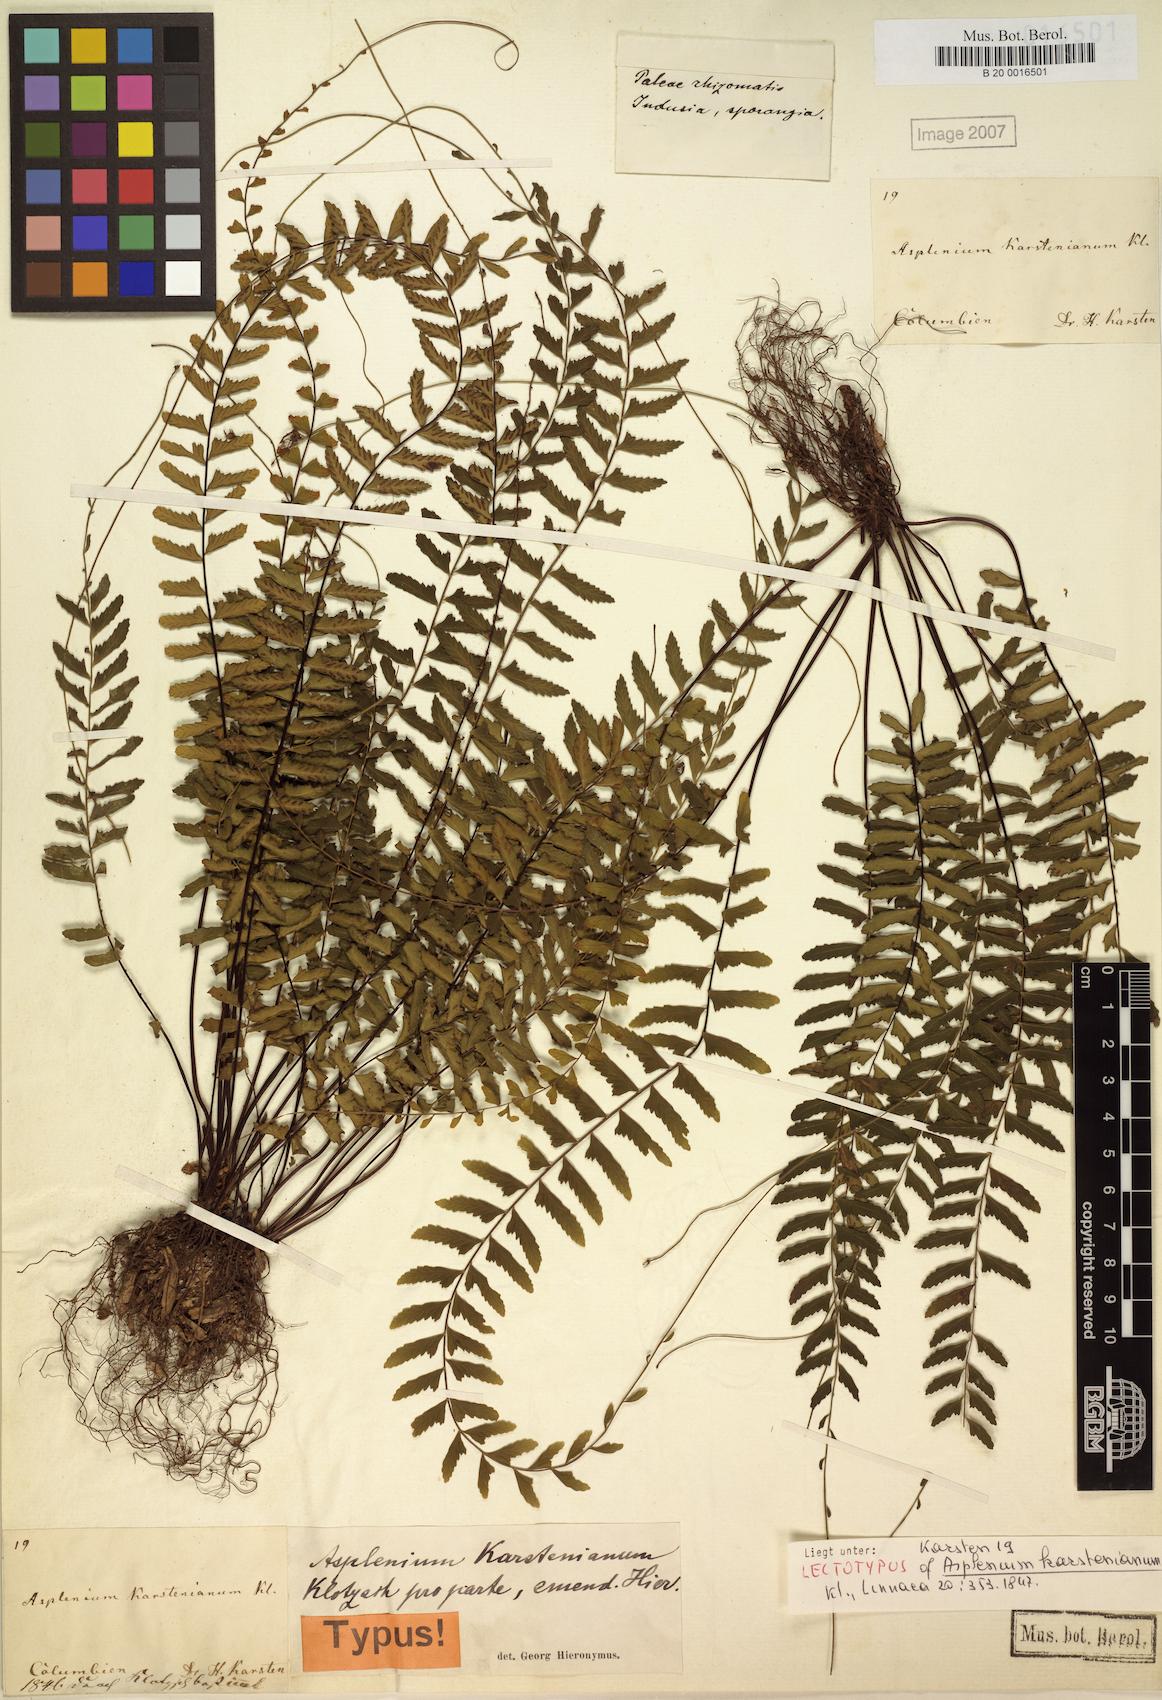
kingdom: Plantae
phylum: Tracheophyta
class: Polypodiopsida
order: Polypodiales
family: Aspleniaceae
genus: Asplenium
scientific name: Asplenium cirrhatum
